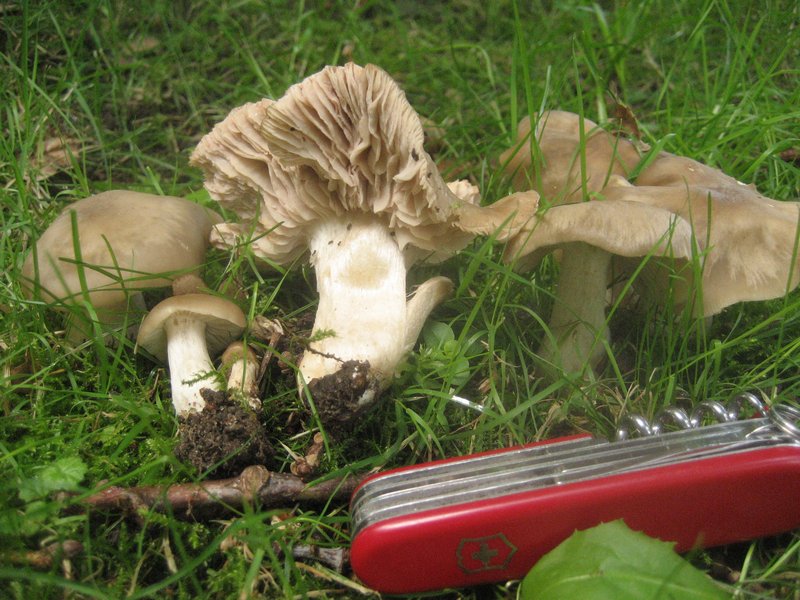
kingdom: Fungi
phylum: Basidiomycota
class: Agaricomycetes
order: Agaricales
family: Entolomataceae
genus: Entoloma
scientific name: Entoloma lividoalbum
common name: lysstokket rødblad
